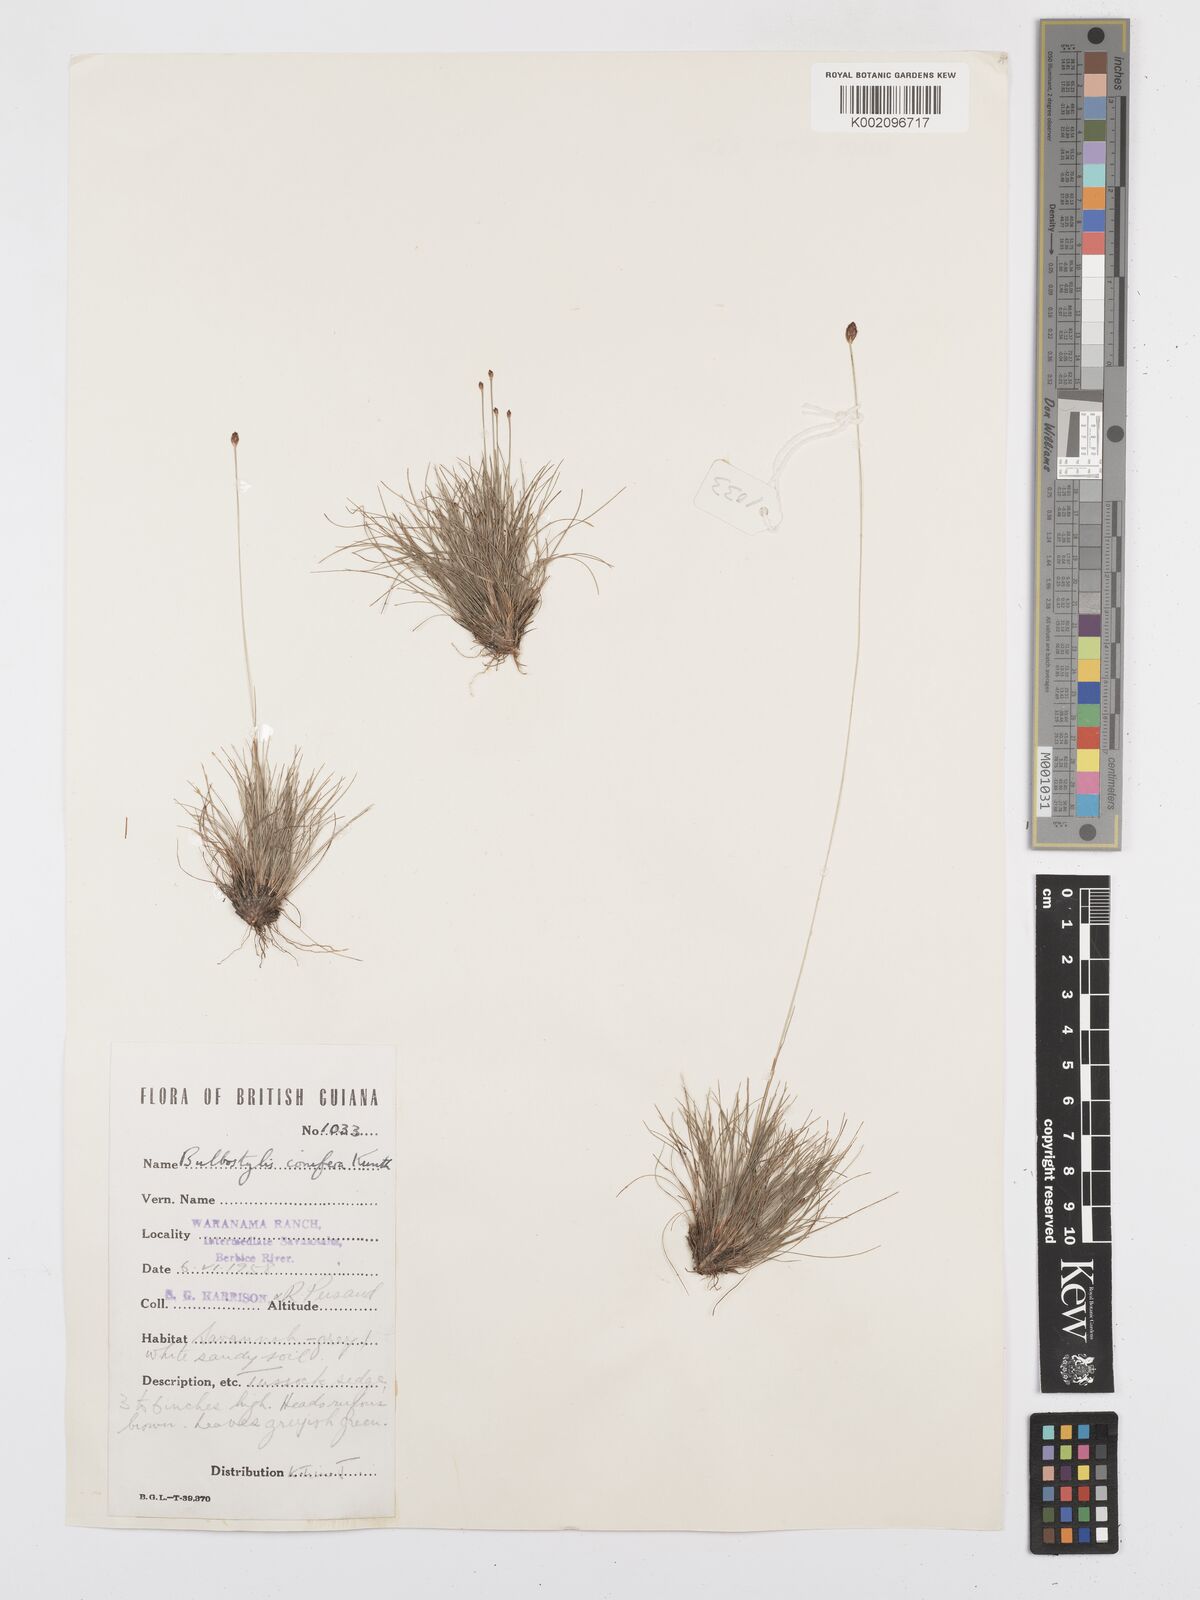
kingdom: Plantae
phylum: Tracheophyta
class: Liliopsida
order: Poales
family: Cyperaceae
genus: Bulbostylis
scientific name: Bulbostylis conifera
